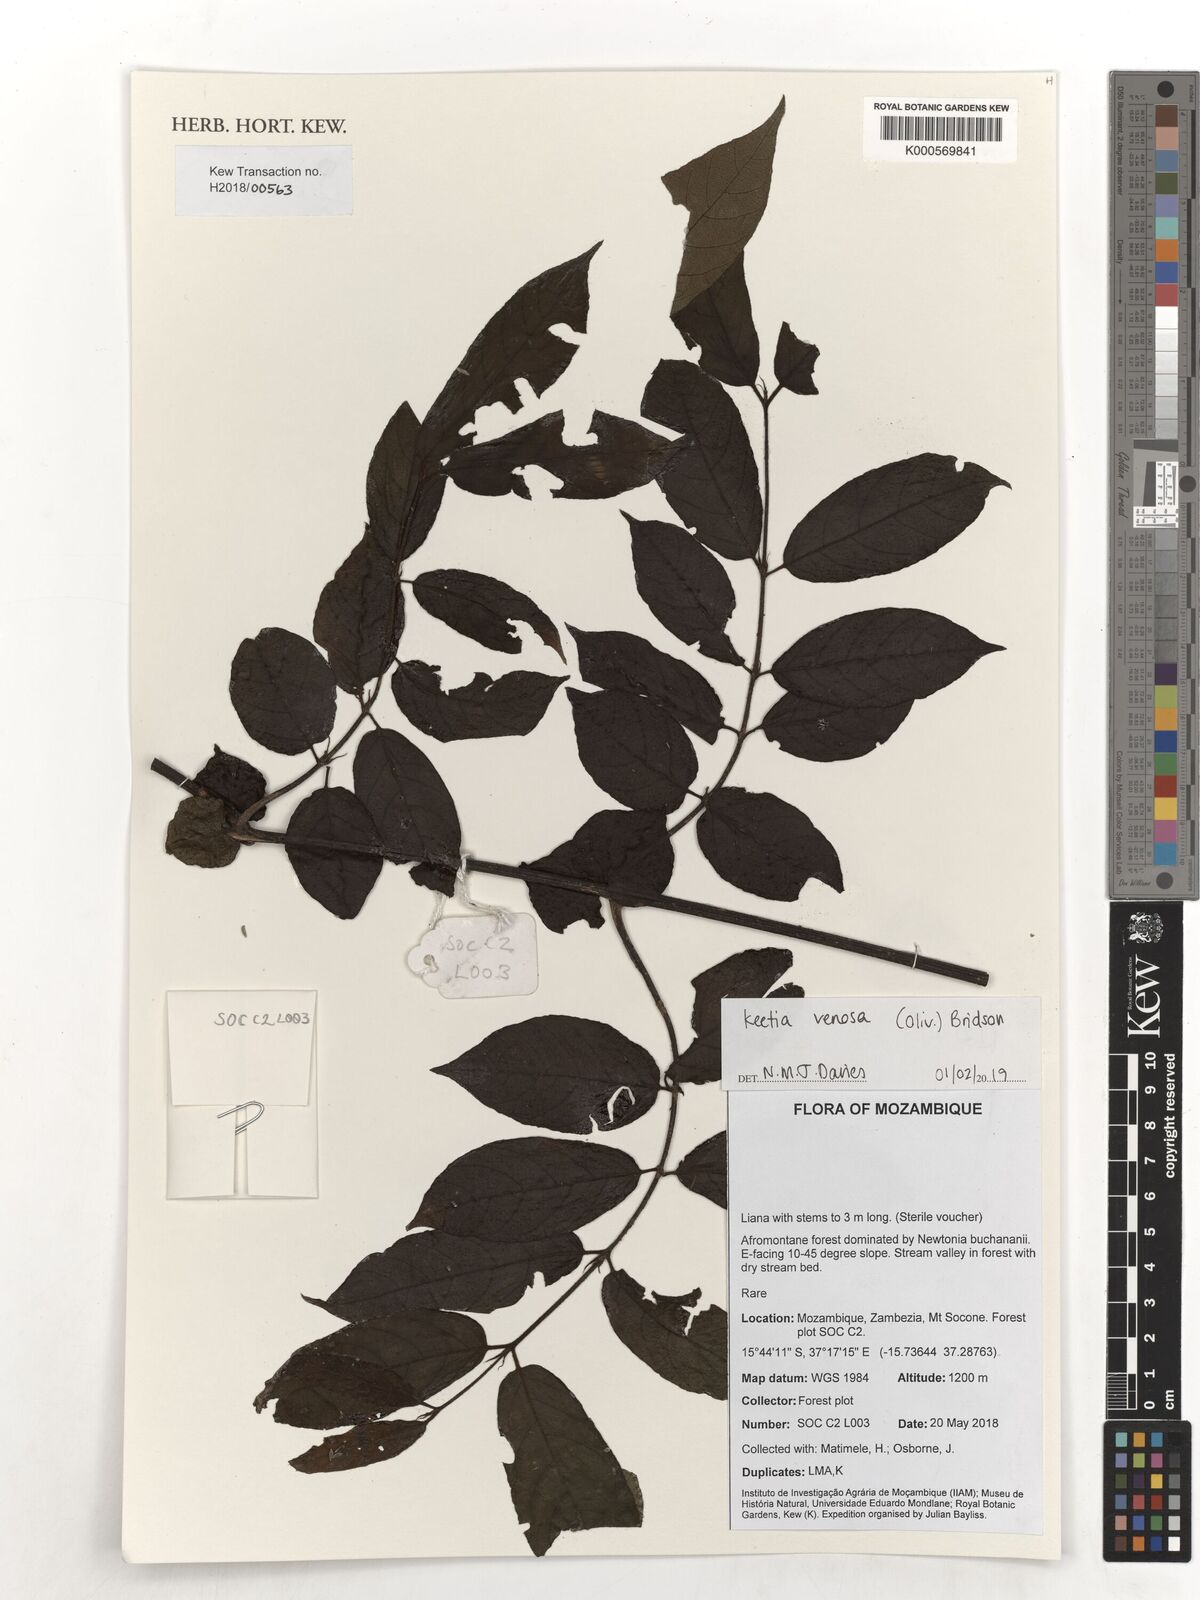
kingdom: Plantae
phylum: Tracheophyta
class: Magnoliopsida
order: Gentianales
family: Rubiaceae
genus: Keetia
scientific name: Keetia venosa
